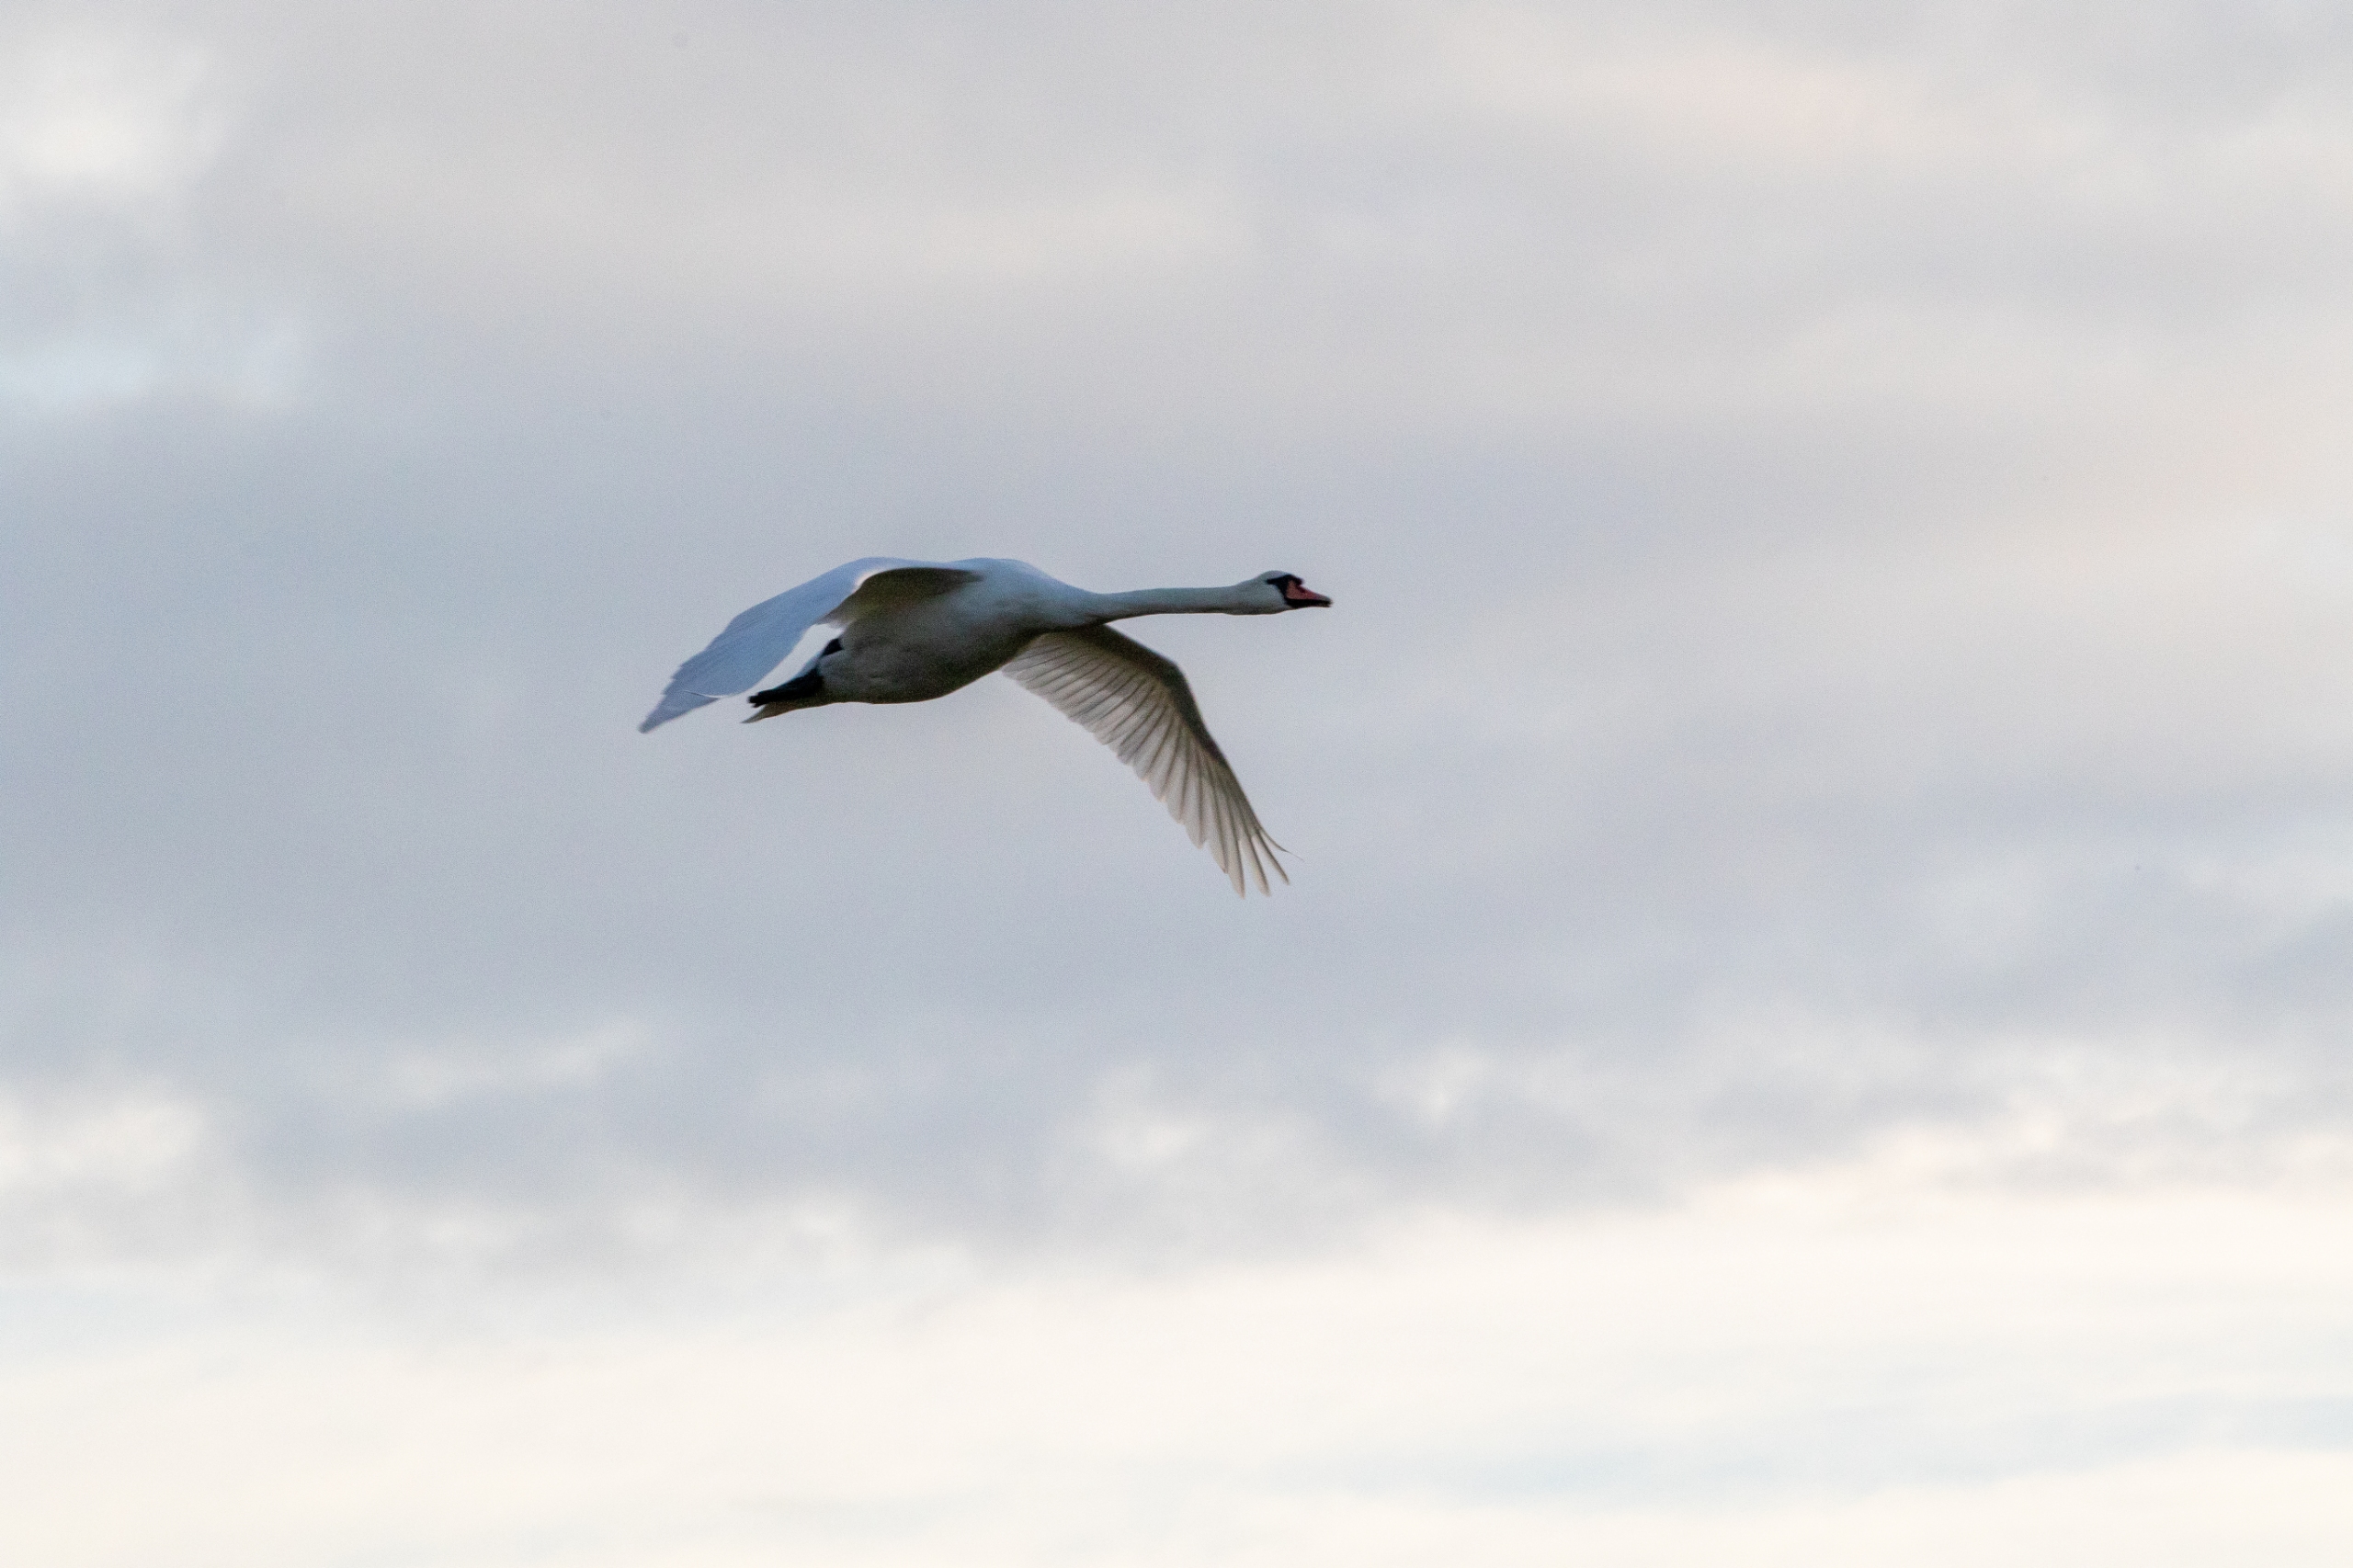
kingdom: Animalia
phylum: Chordata
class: Aves
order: Anseriformes
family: Anatidae
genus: Cygnus
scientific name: Cygnus olor
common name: Knopsvane
